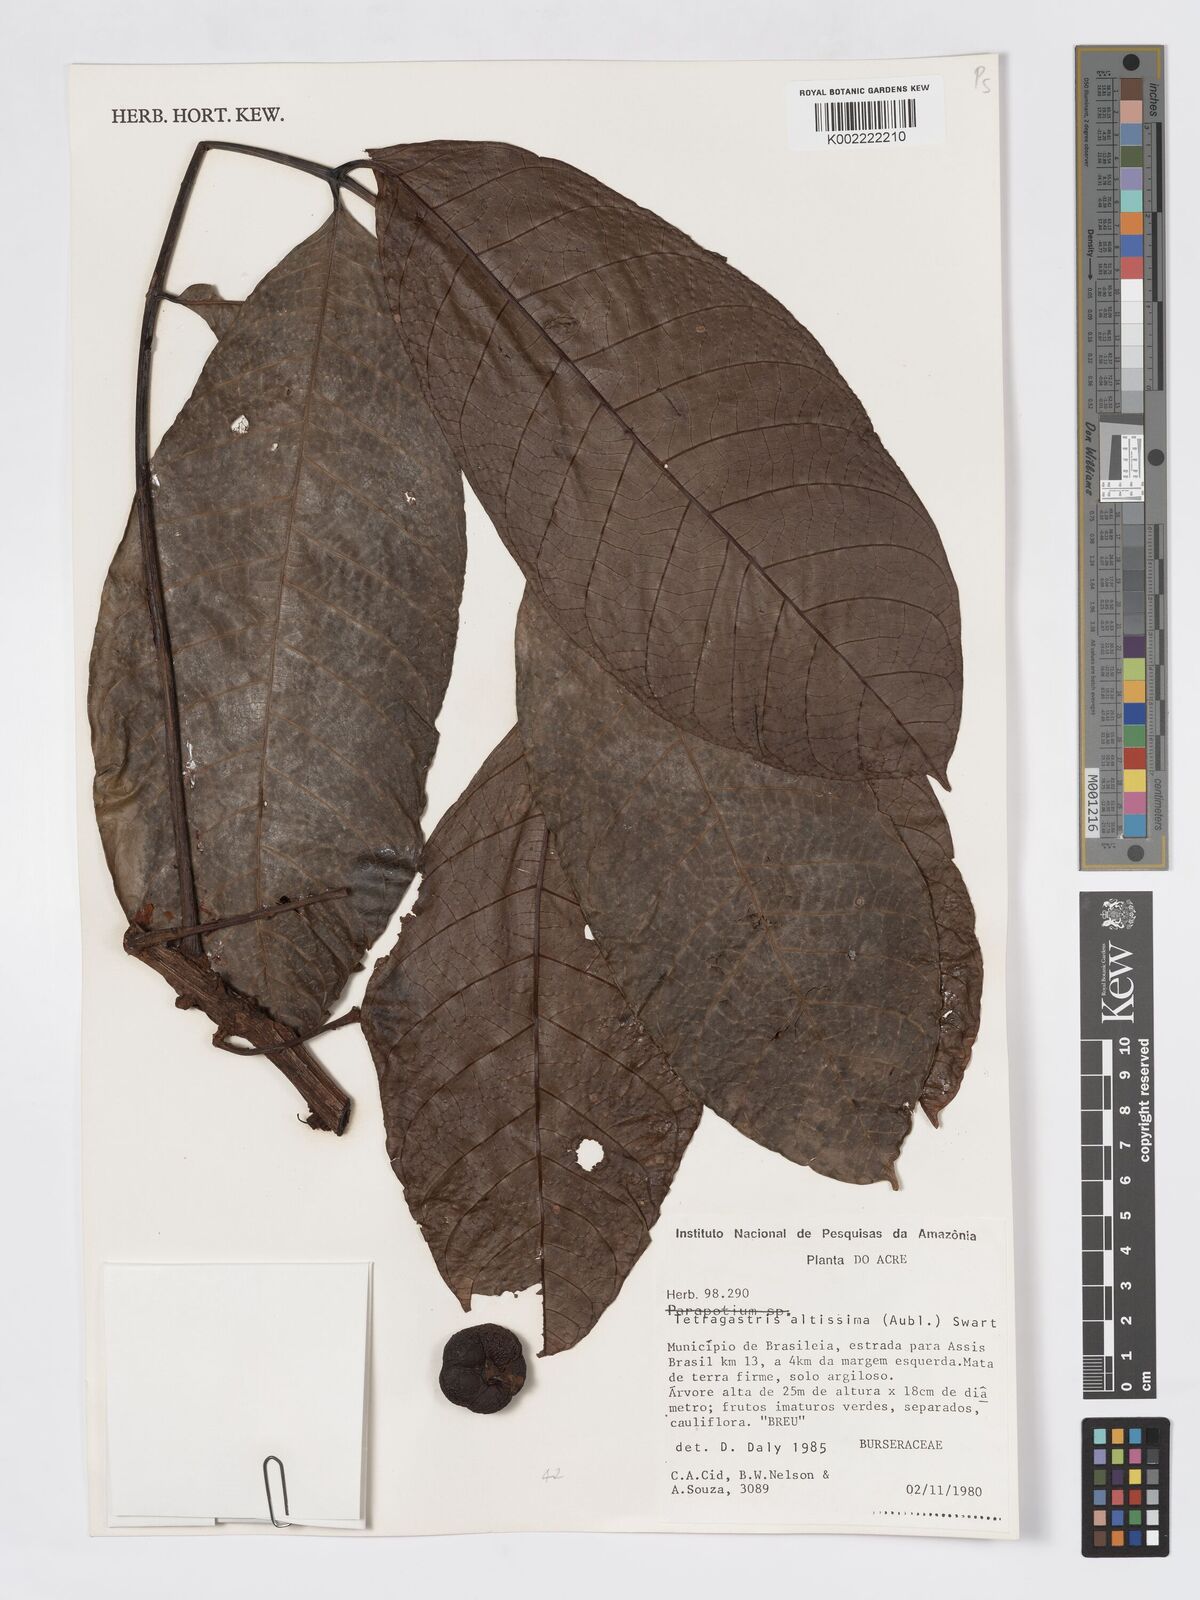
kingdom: Plantae
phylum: Tracheophyta
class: Magnoliopsida
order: Sapindales
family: Burseraceae
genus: Tetragastris
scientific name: Tetragastris altissima
